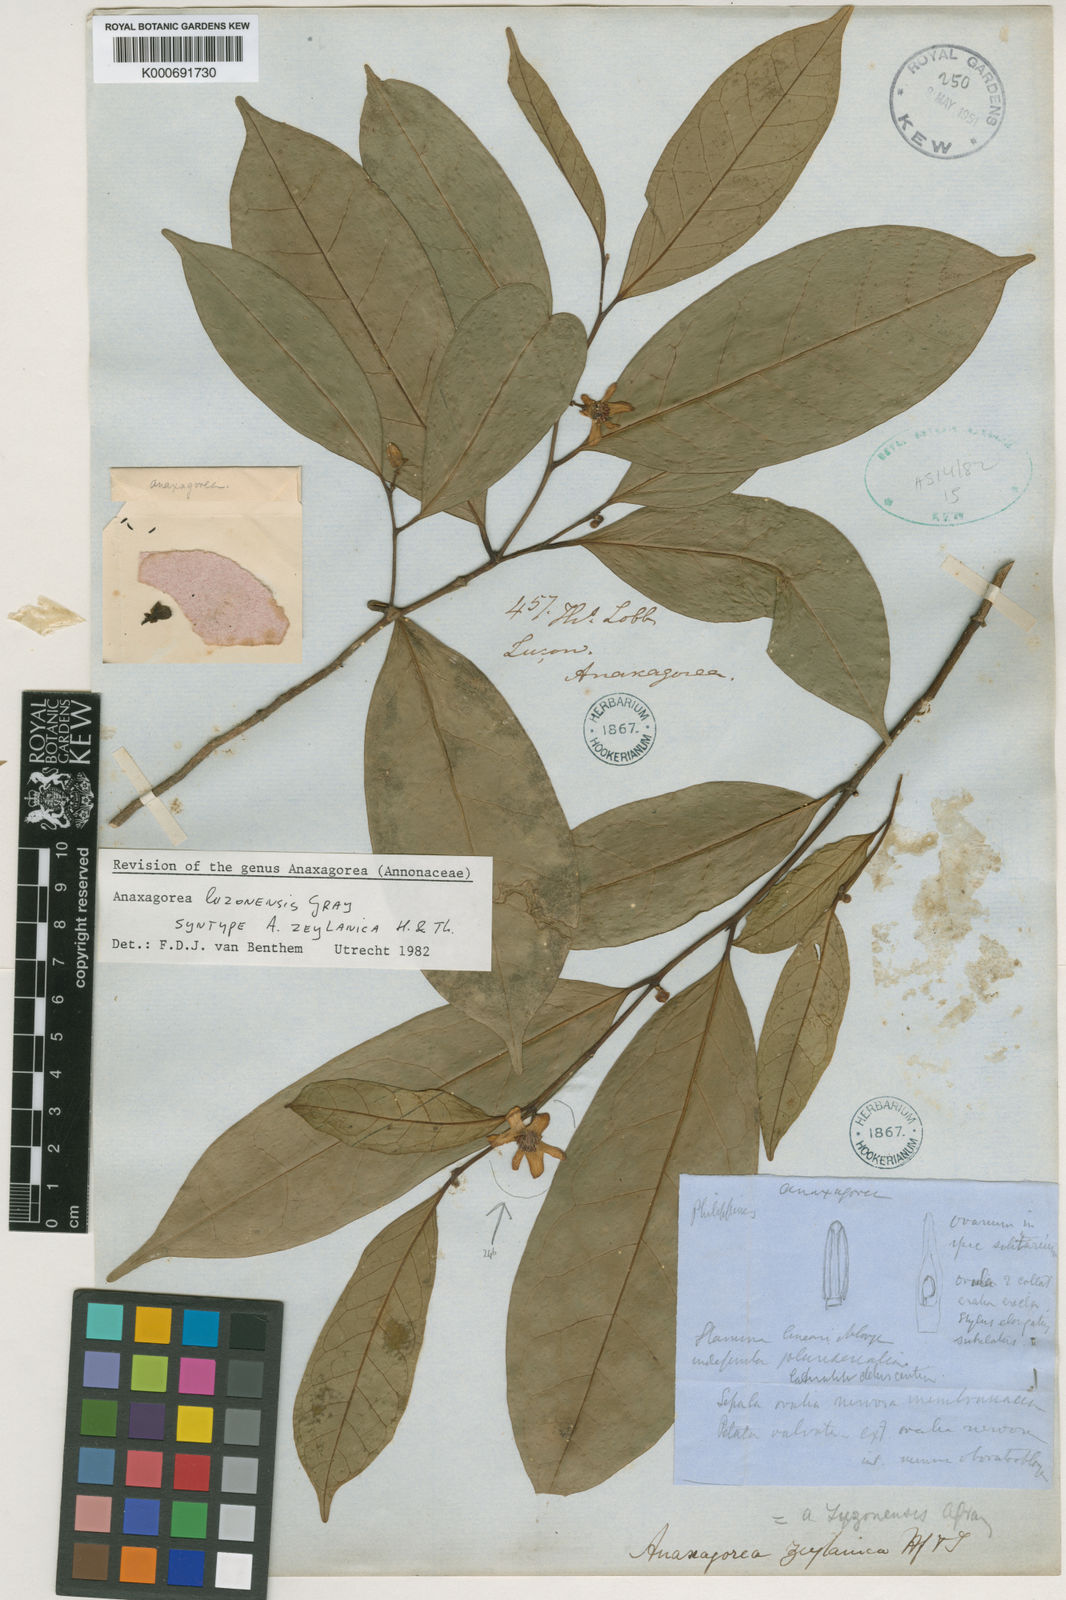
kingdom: Plantae
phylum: Tracheophyta
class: Magnoliopsida
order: Magnoliales
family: Annonaceae
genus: Anaxagorea
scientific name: Anaxagorea luzonensis
